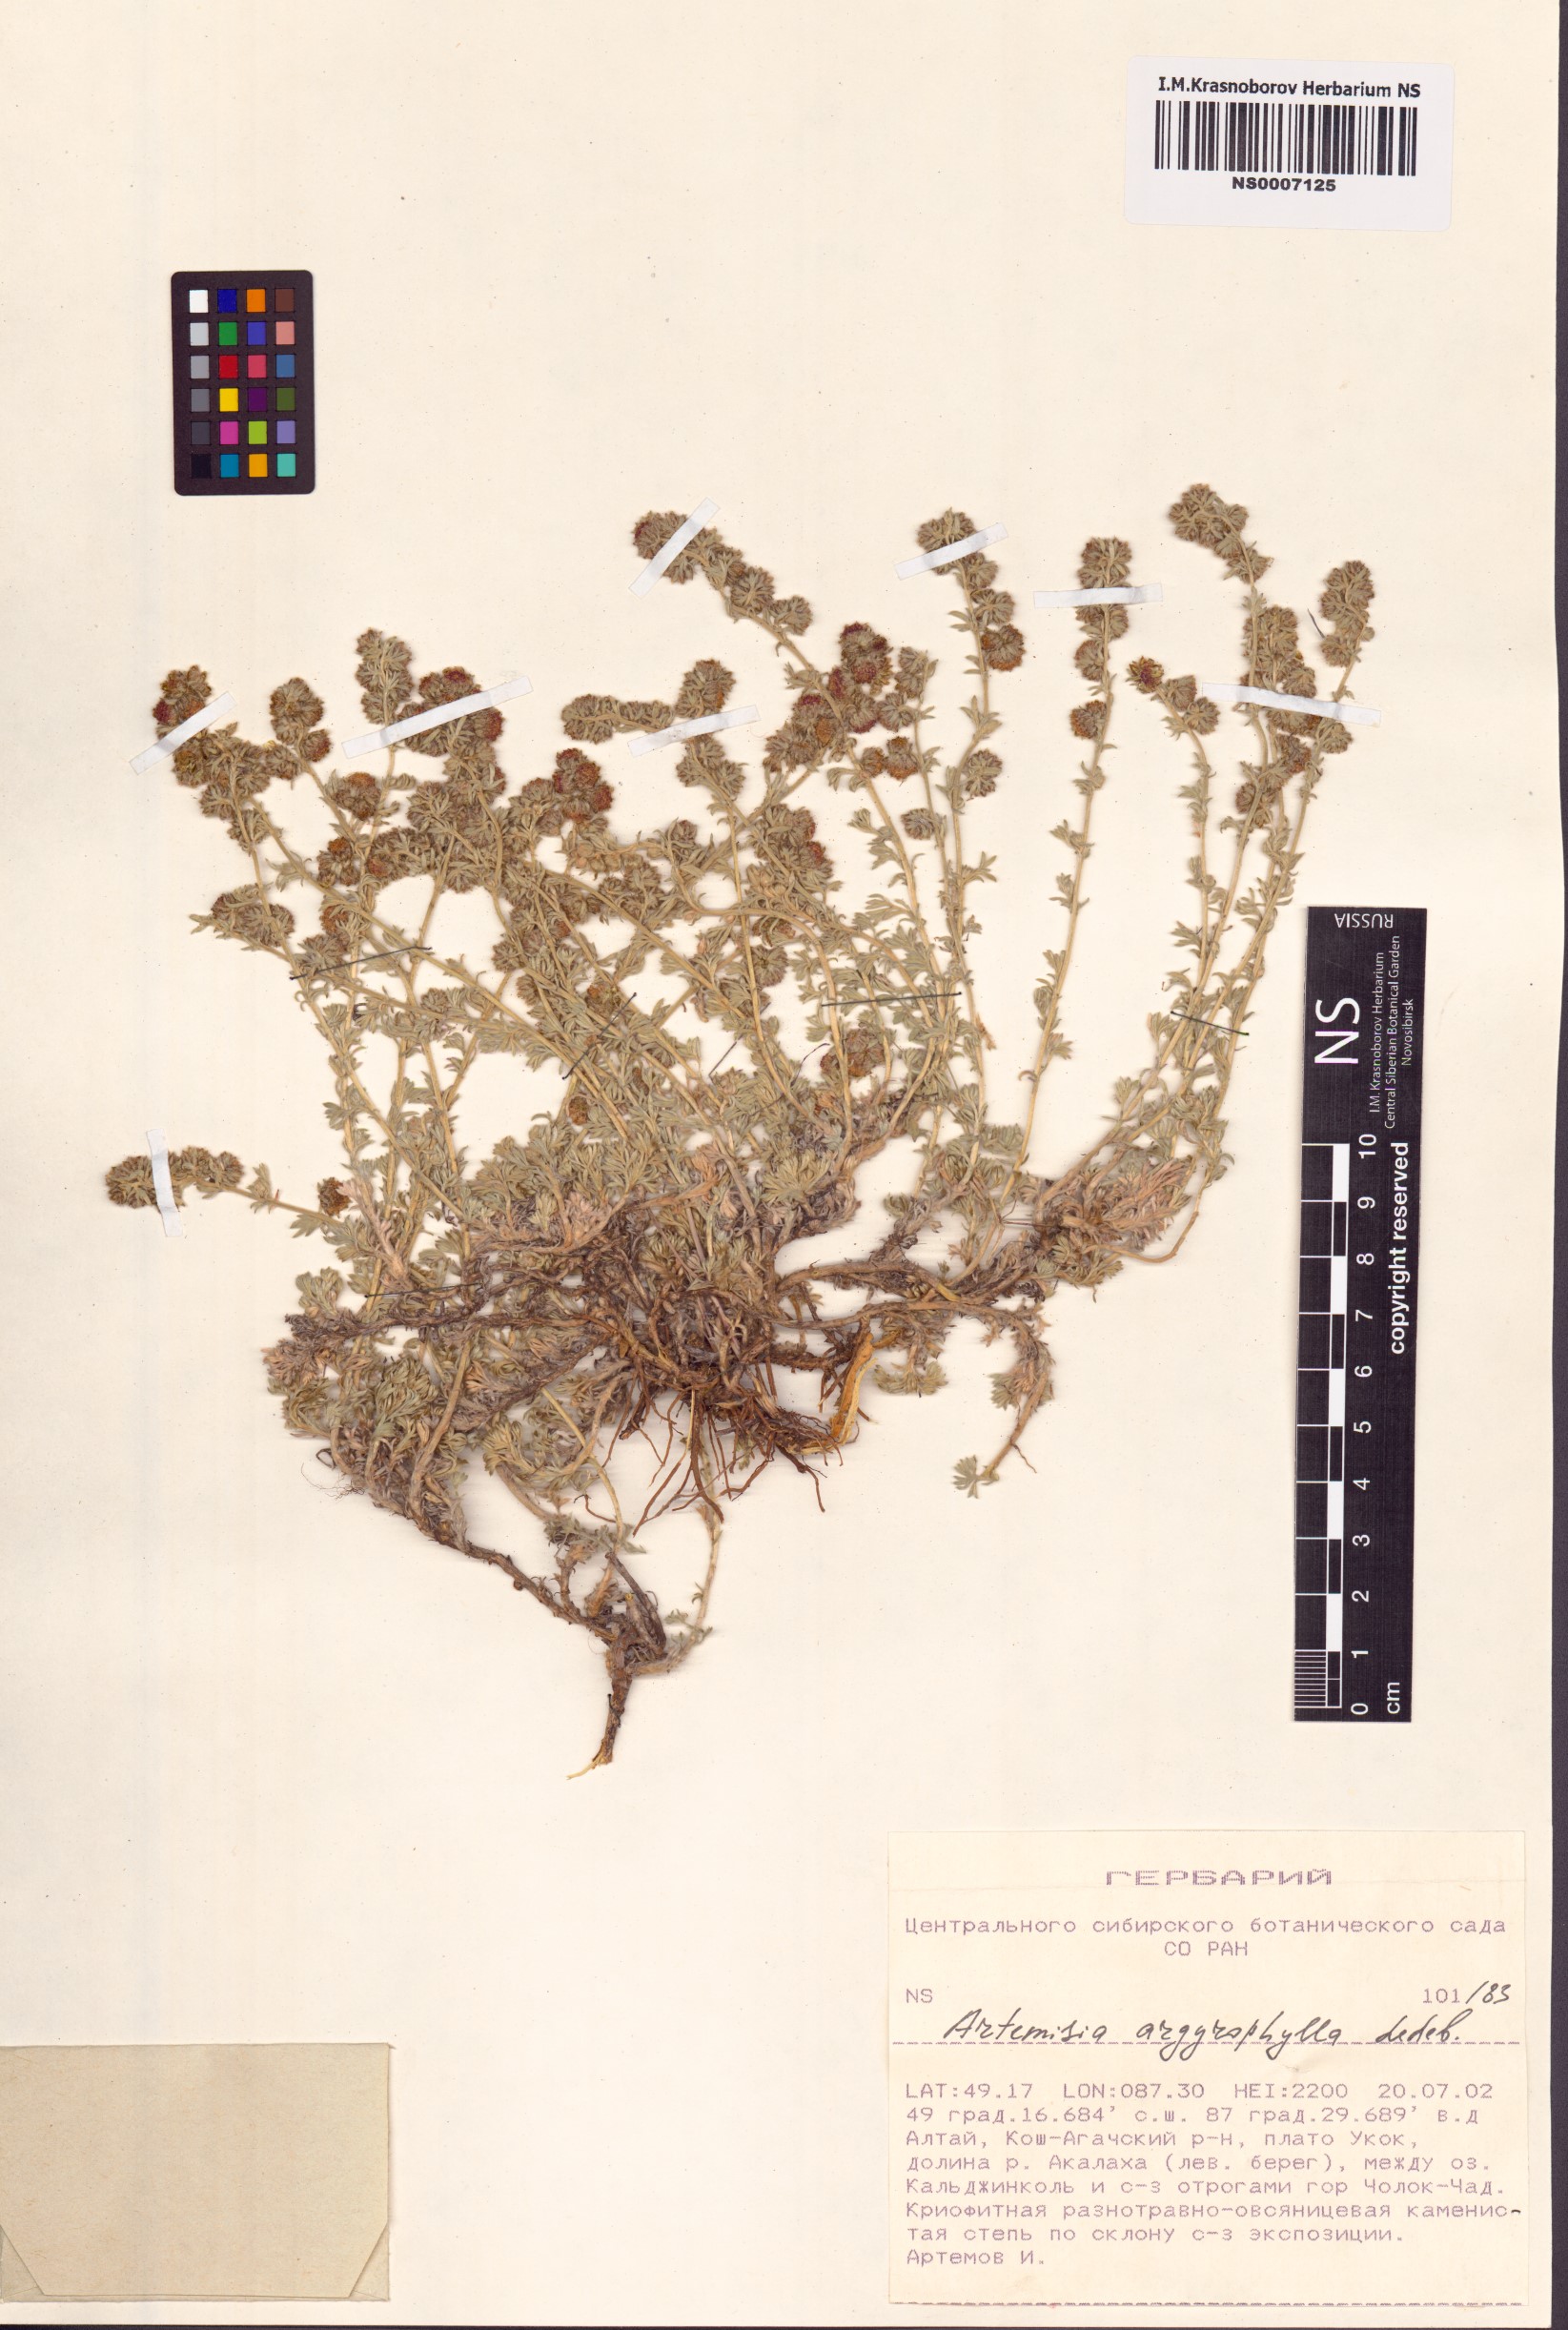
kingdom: Plantae
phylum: Tracheophyta
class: Magnoliopsida
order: Asterales
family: Asteraceae
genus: Artemisia
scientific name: Artemisia argyrophylla
